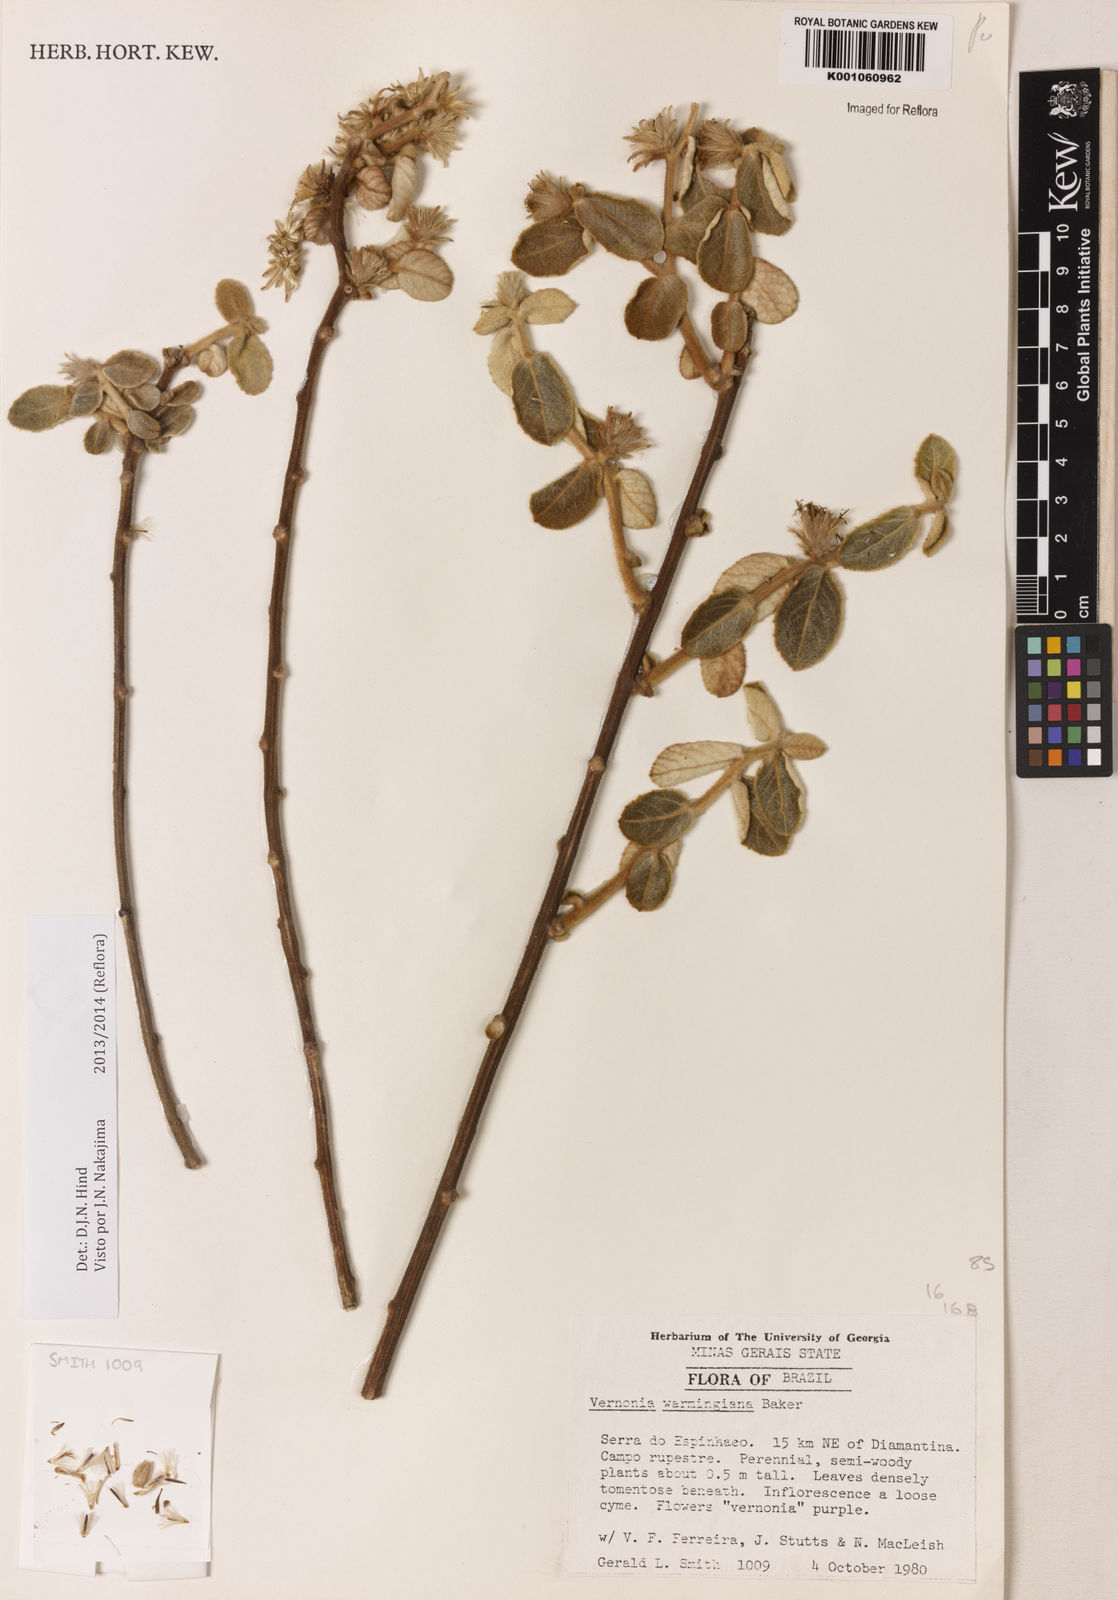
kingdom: Plantae
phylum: Tracheophyta
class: Magnoliopsida
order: Asterales
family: Asteraceae
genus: Lessingianthus
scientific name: Lessingianthus warmingianus
